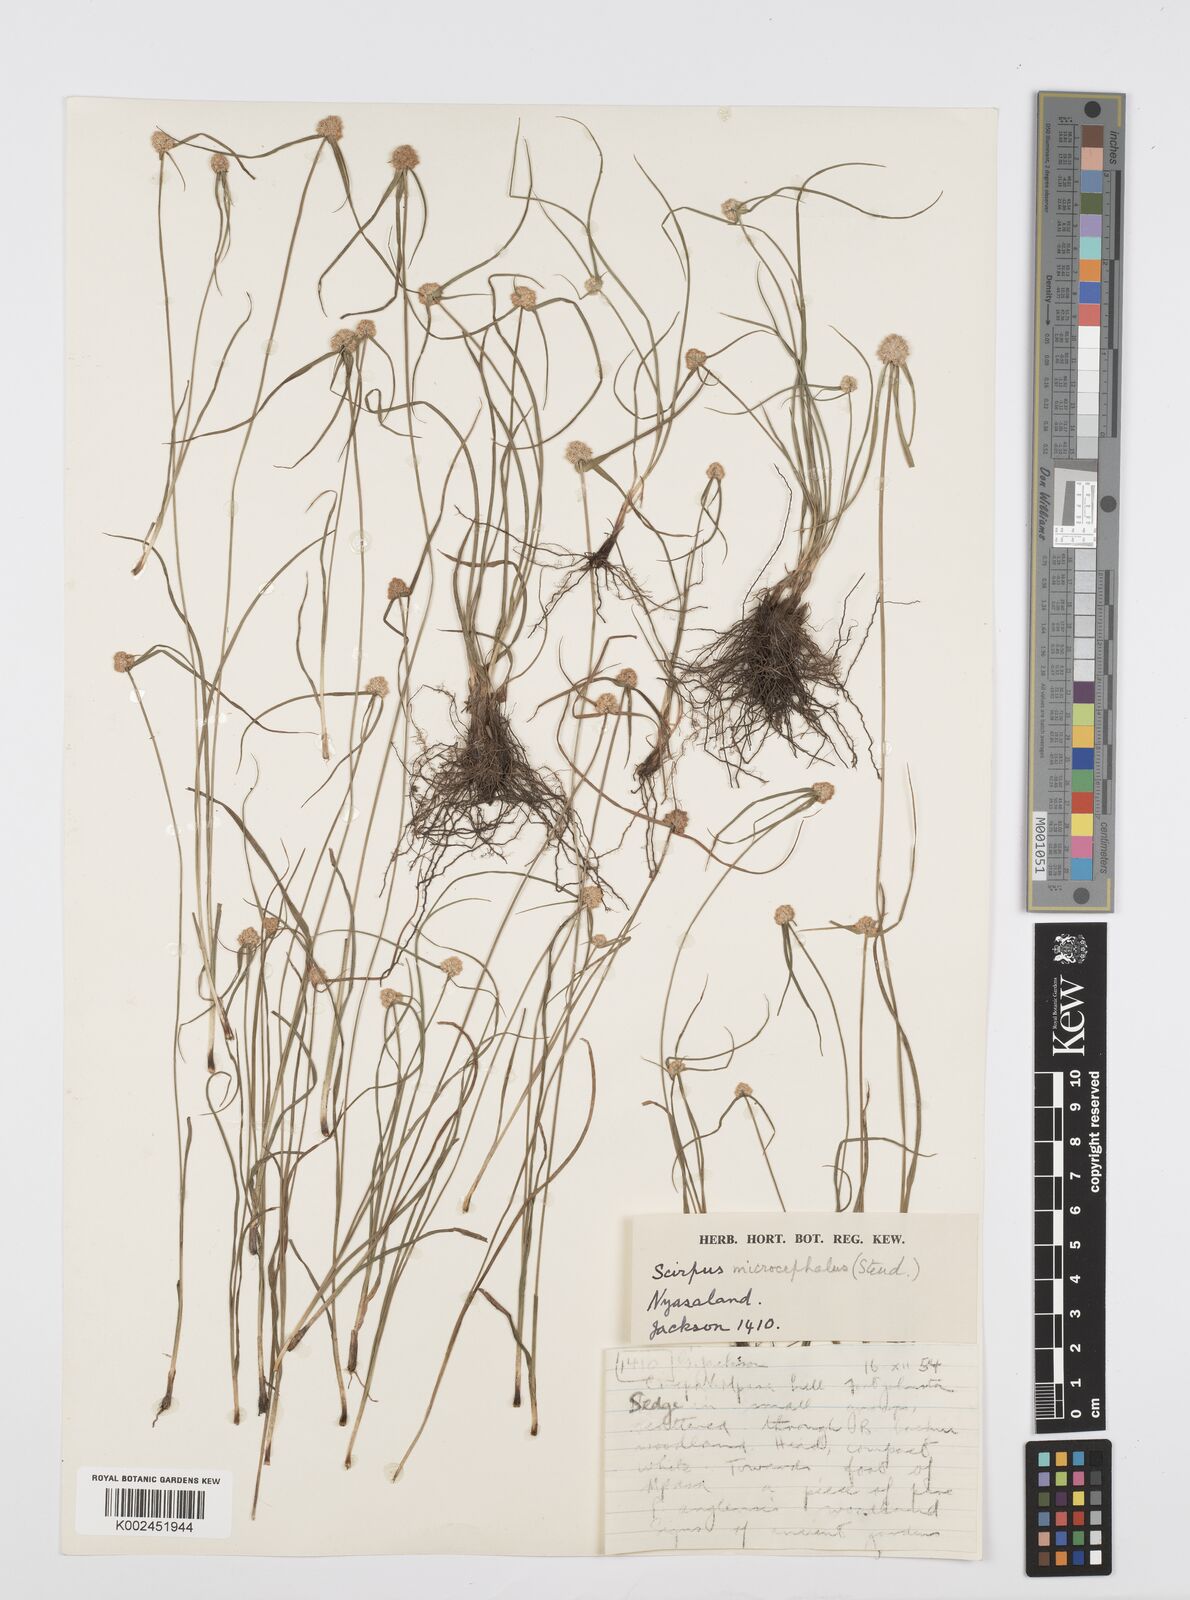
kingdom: Plantae
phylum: Tracheophyta
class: Liliopsida
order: Poales
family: Cyperaceae
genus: Cyperus
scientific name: Cyperus microcephalus
